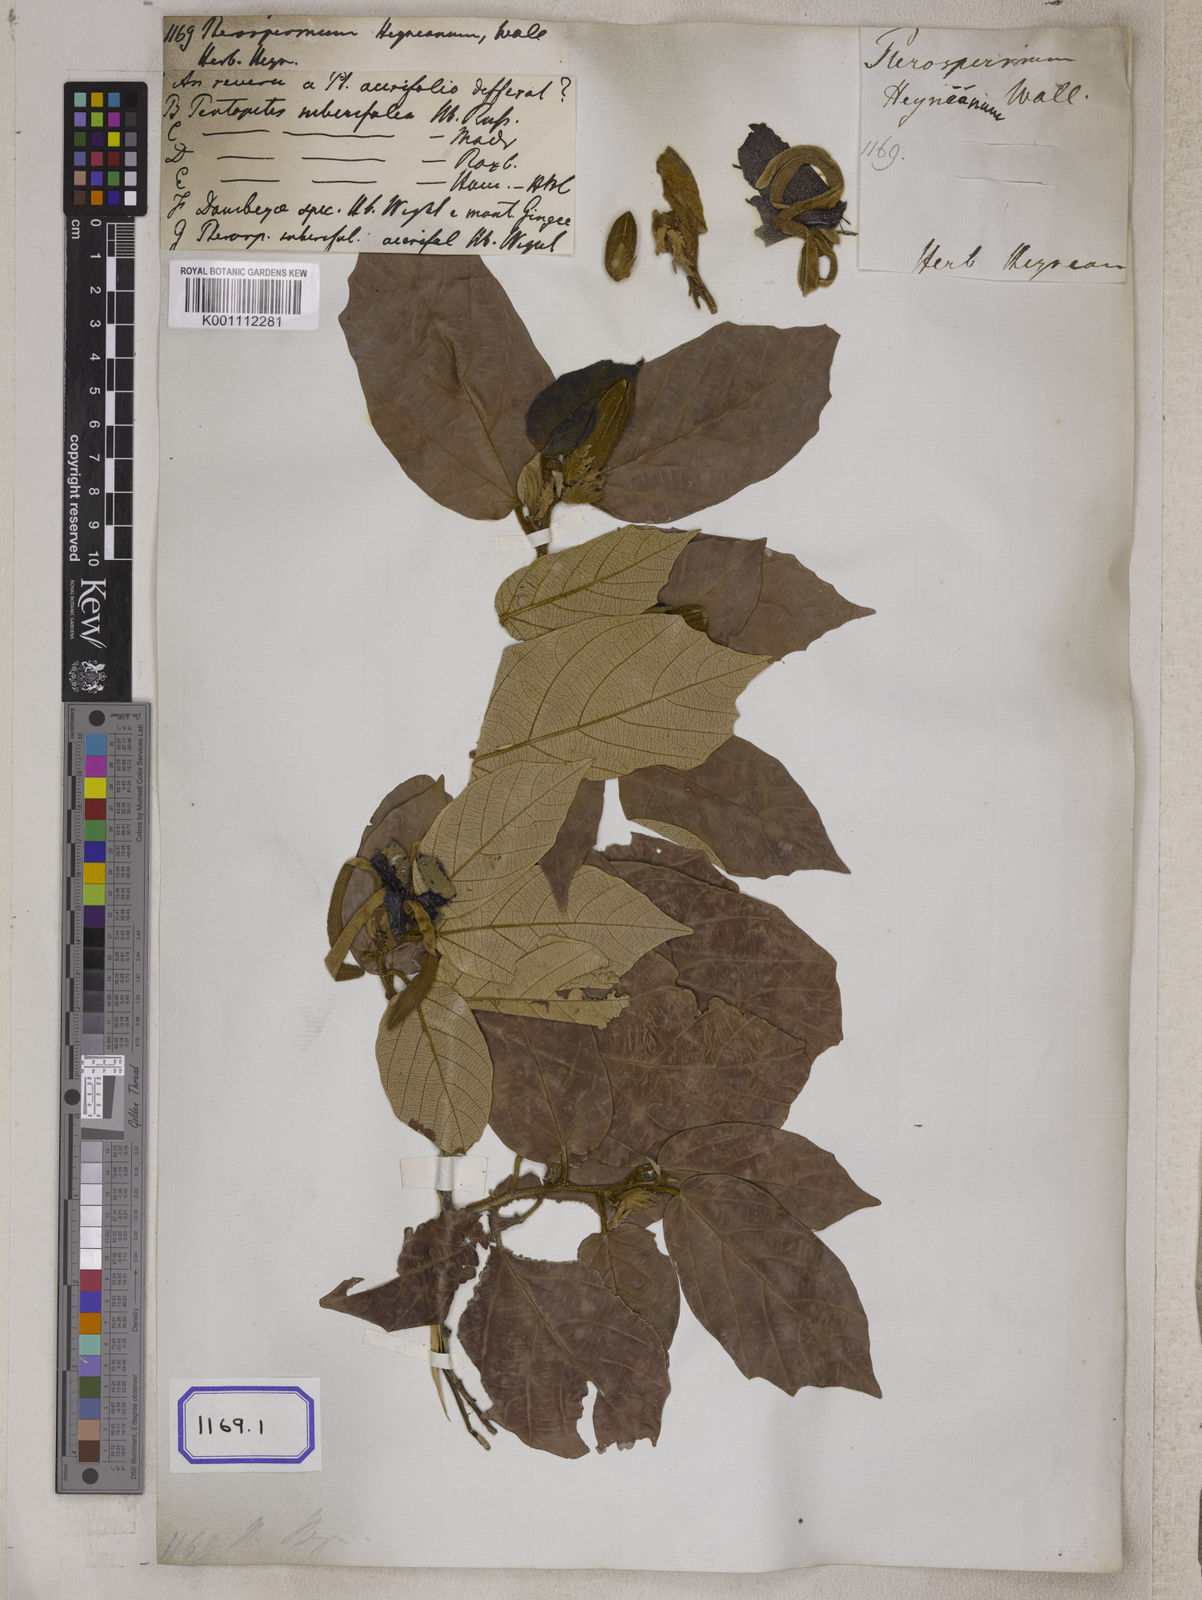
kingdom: Plantae
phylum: Tracheophyta
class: Magnoliopsida
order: Malvales
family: Malvaceae
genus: Pterospermum
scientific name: Pterospermum
